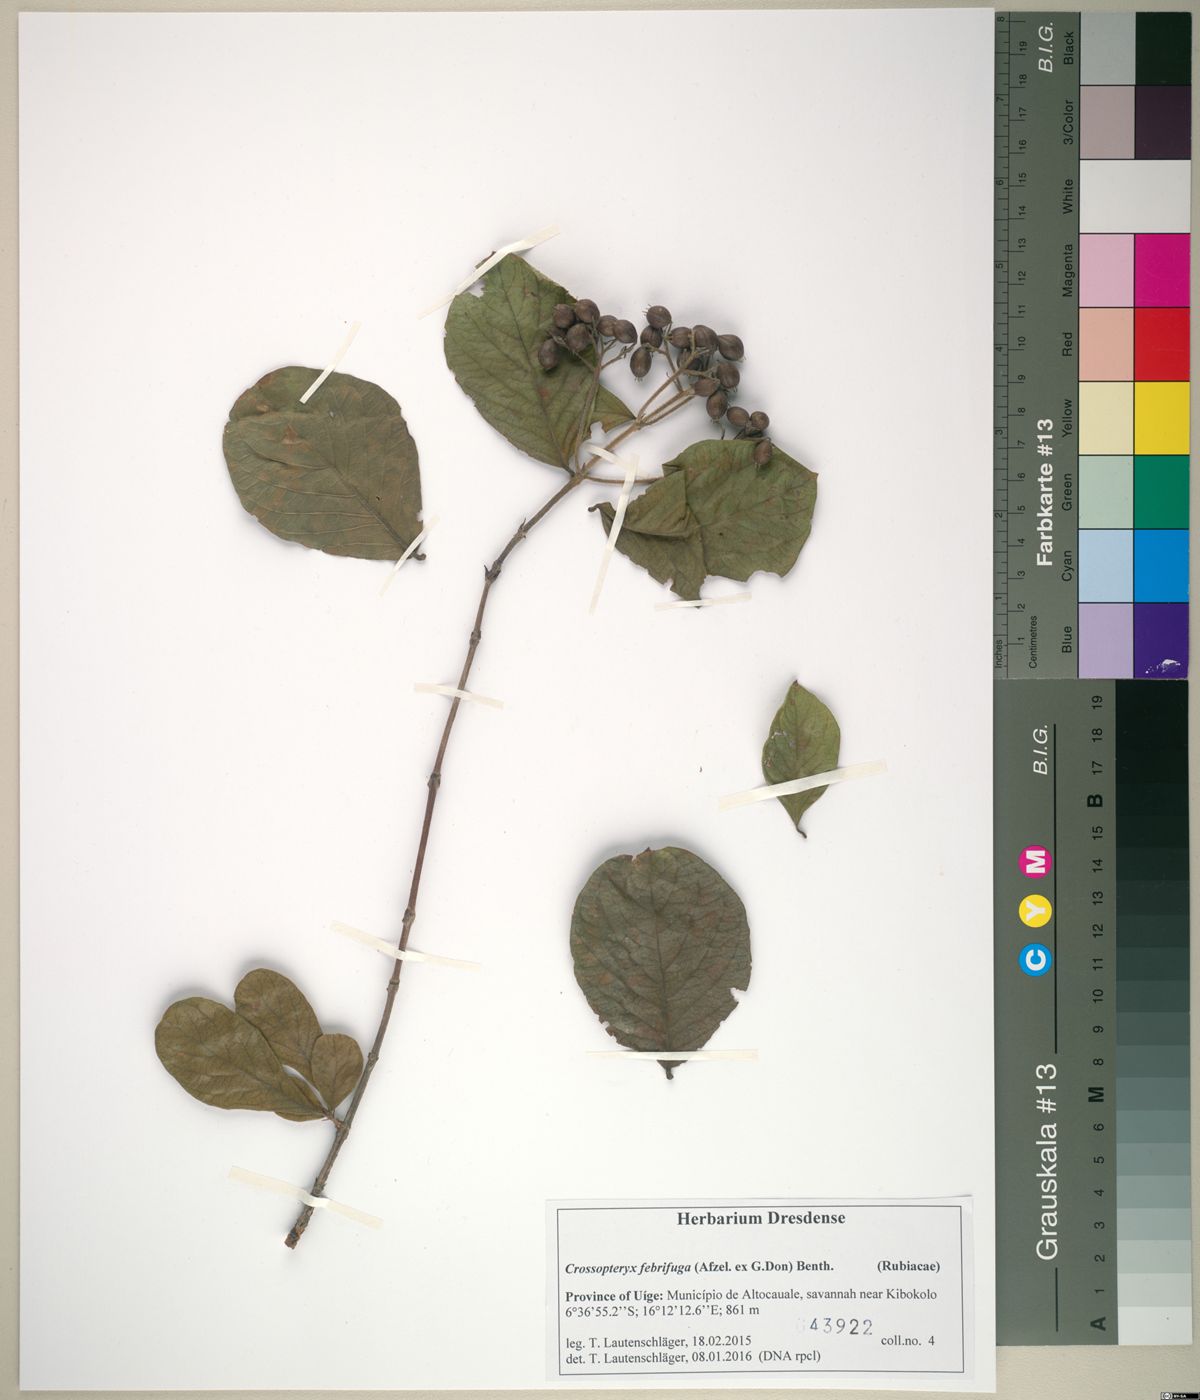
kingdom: Plantae
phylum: Tracheophyta
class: Magnoliopsida
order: Gentianales
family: Rubiaceae
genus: Crossopteryx
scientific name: Crossopteryx febrifuga
